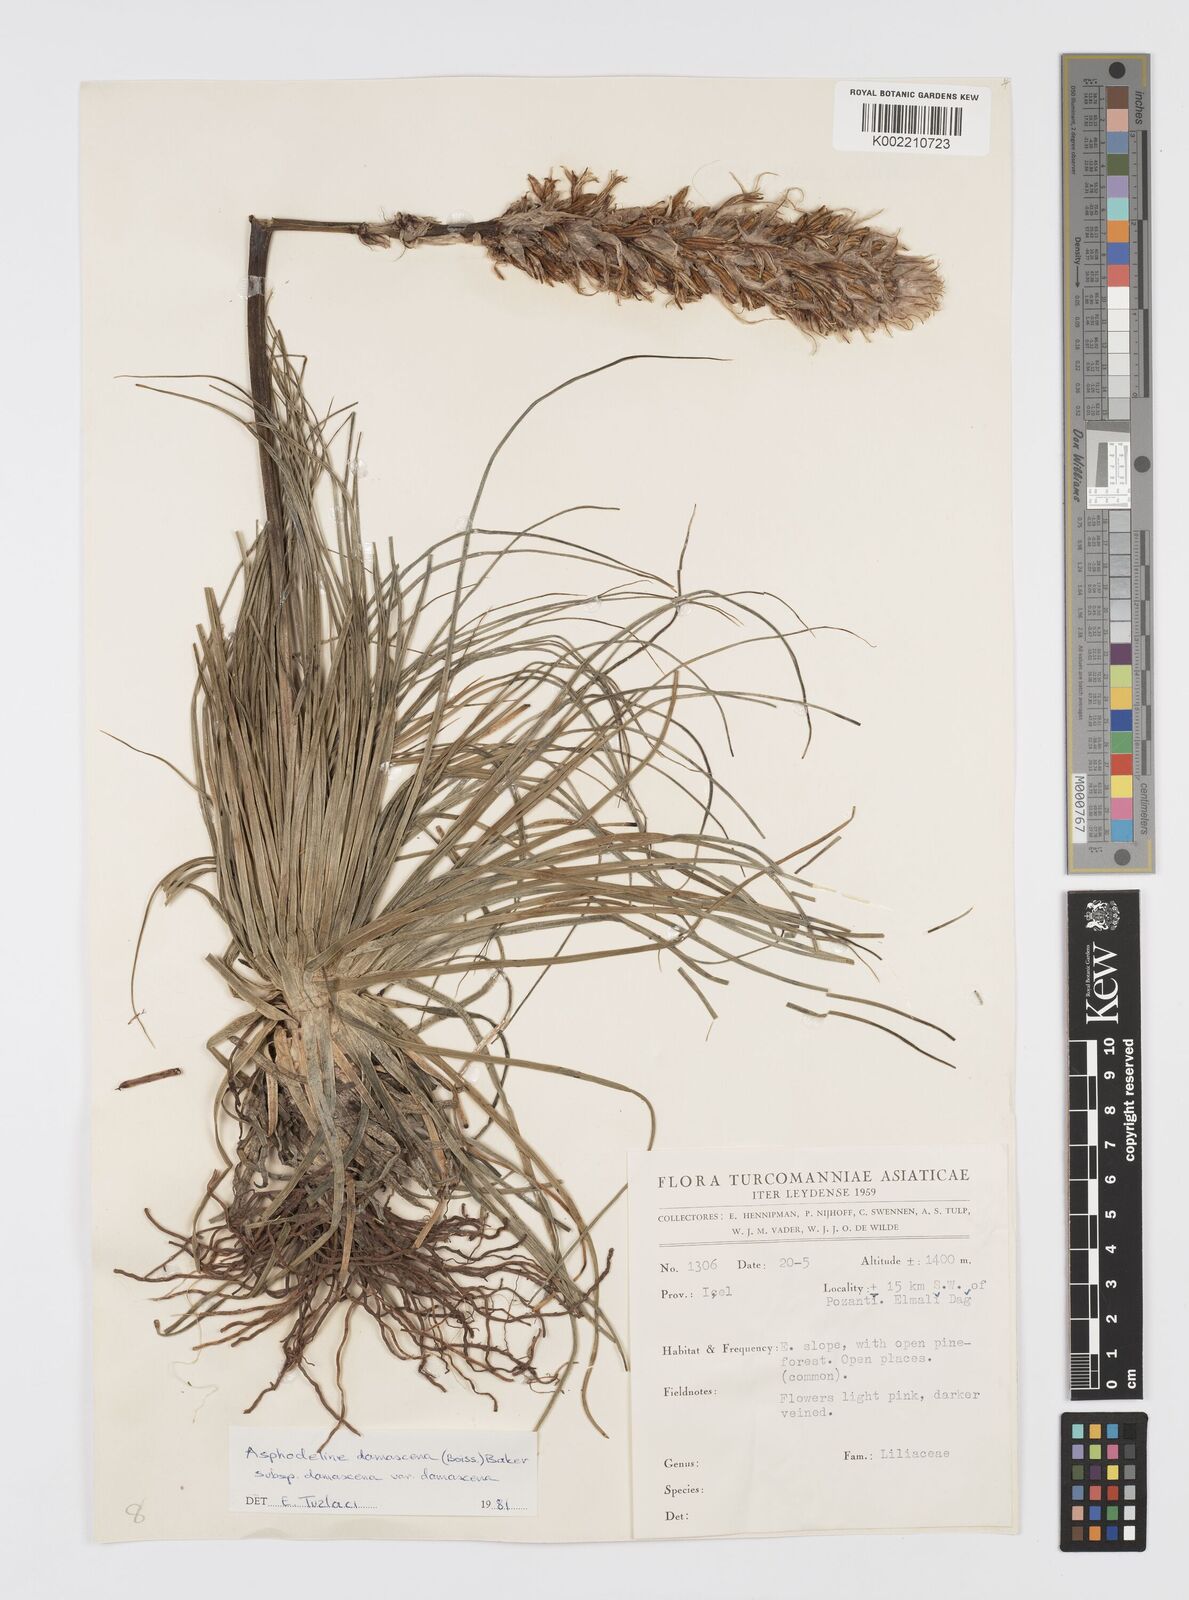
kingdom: Plantae
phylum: Tracheophyta
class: Liliopsida
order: Asparagales
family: Asphodelaceae
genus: Asphodeline
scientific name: Asphodeline damascena
